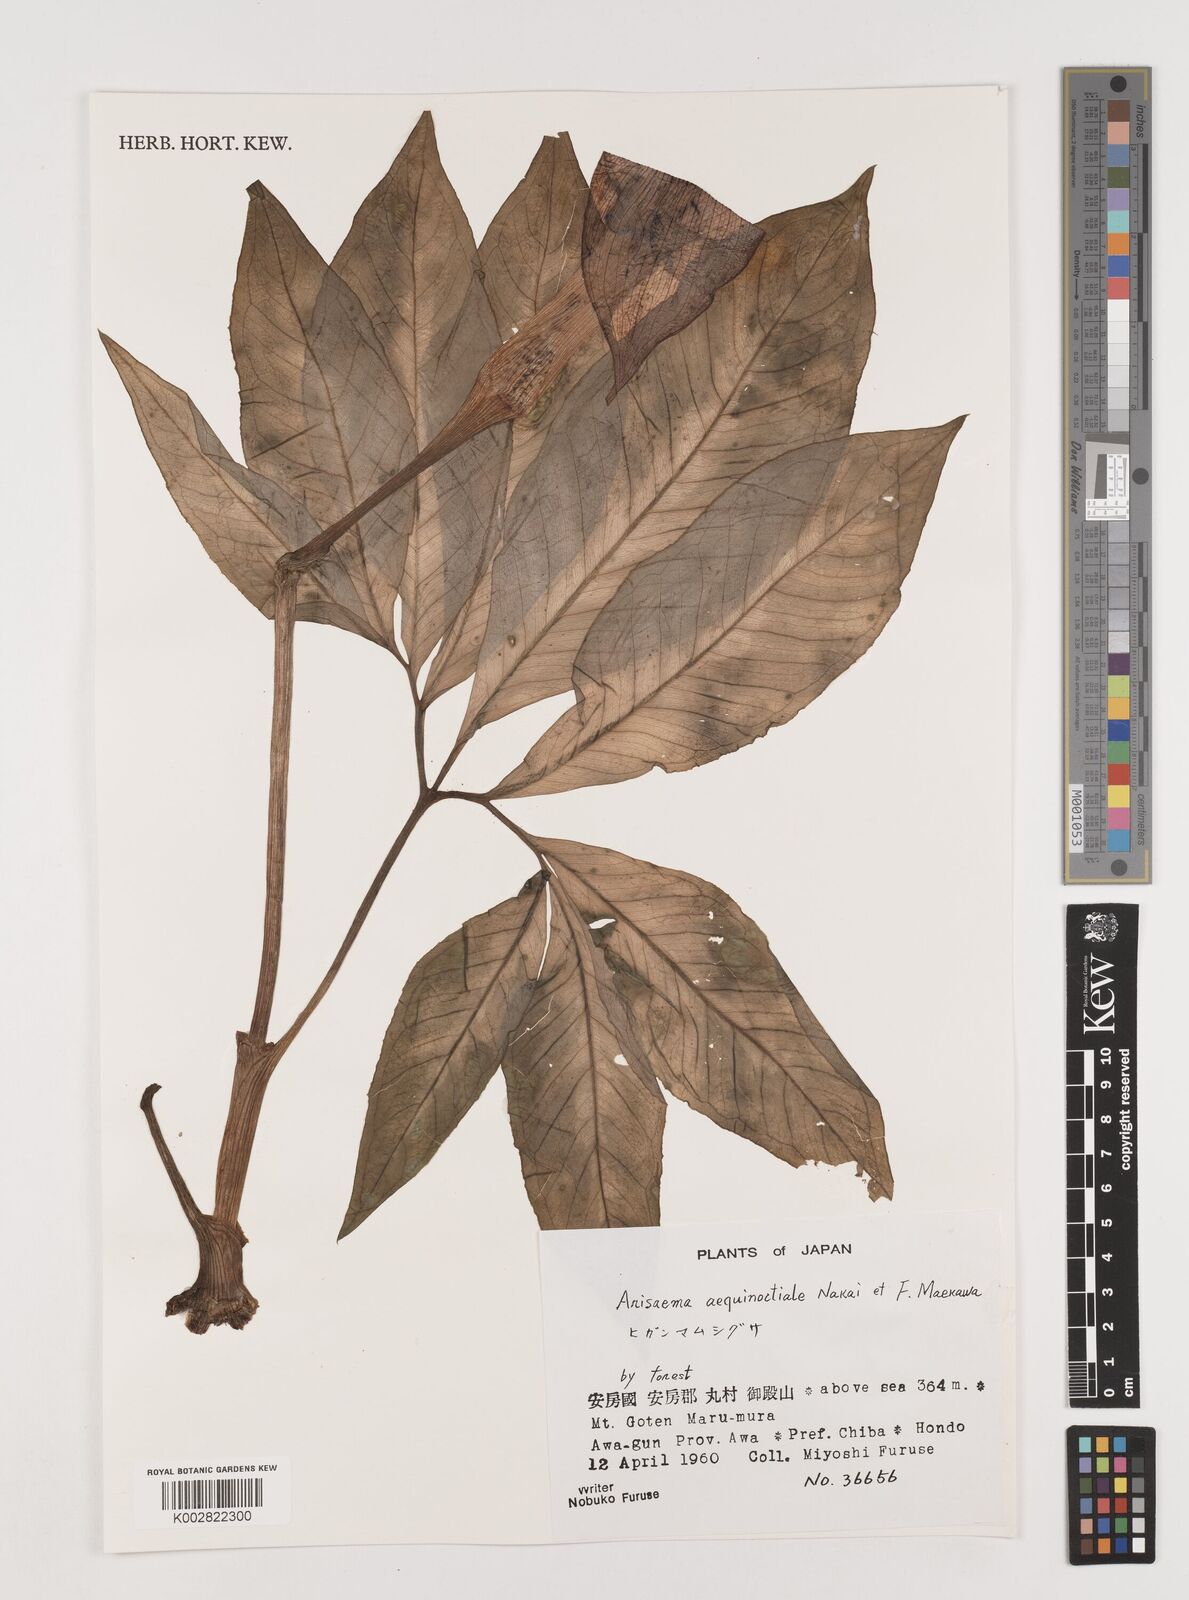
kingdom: Plantae
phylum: Tracheophyta
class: Liliopsida
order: Alismatales
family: Araceae
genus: Arisaema
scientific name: Arisaema aequinoctiale
